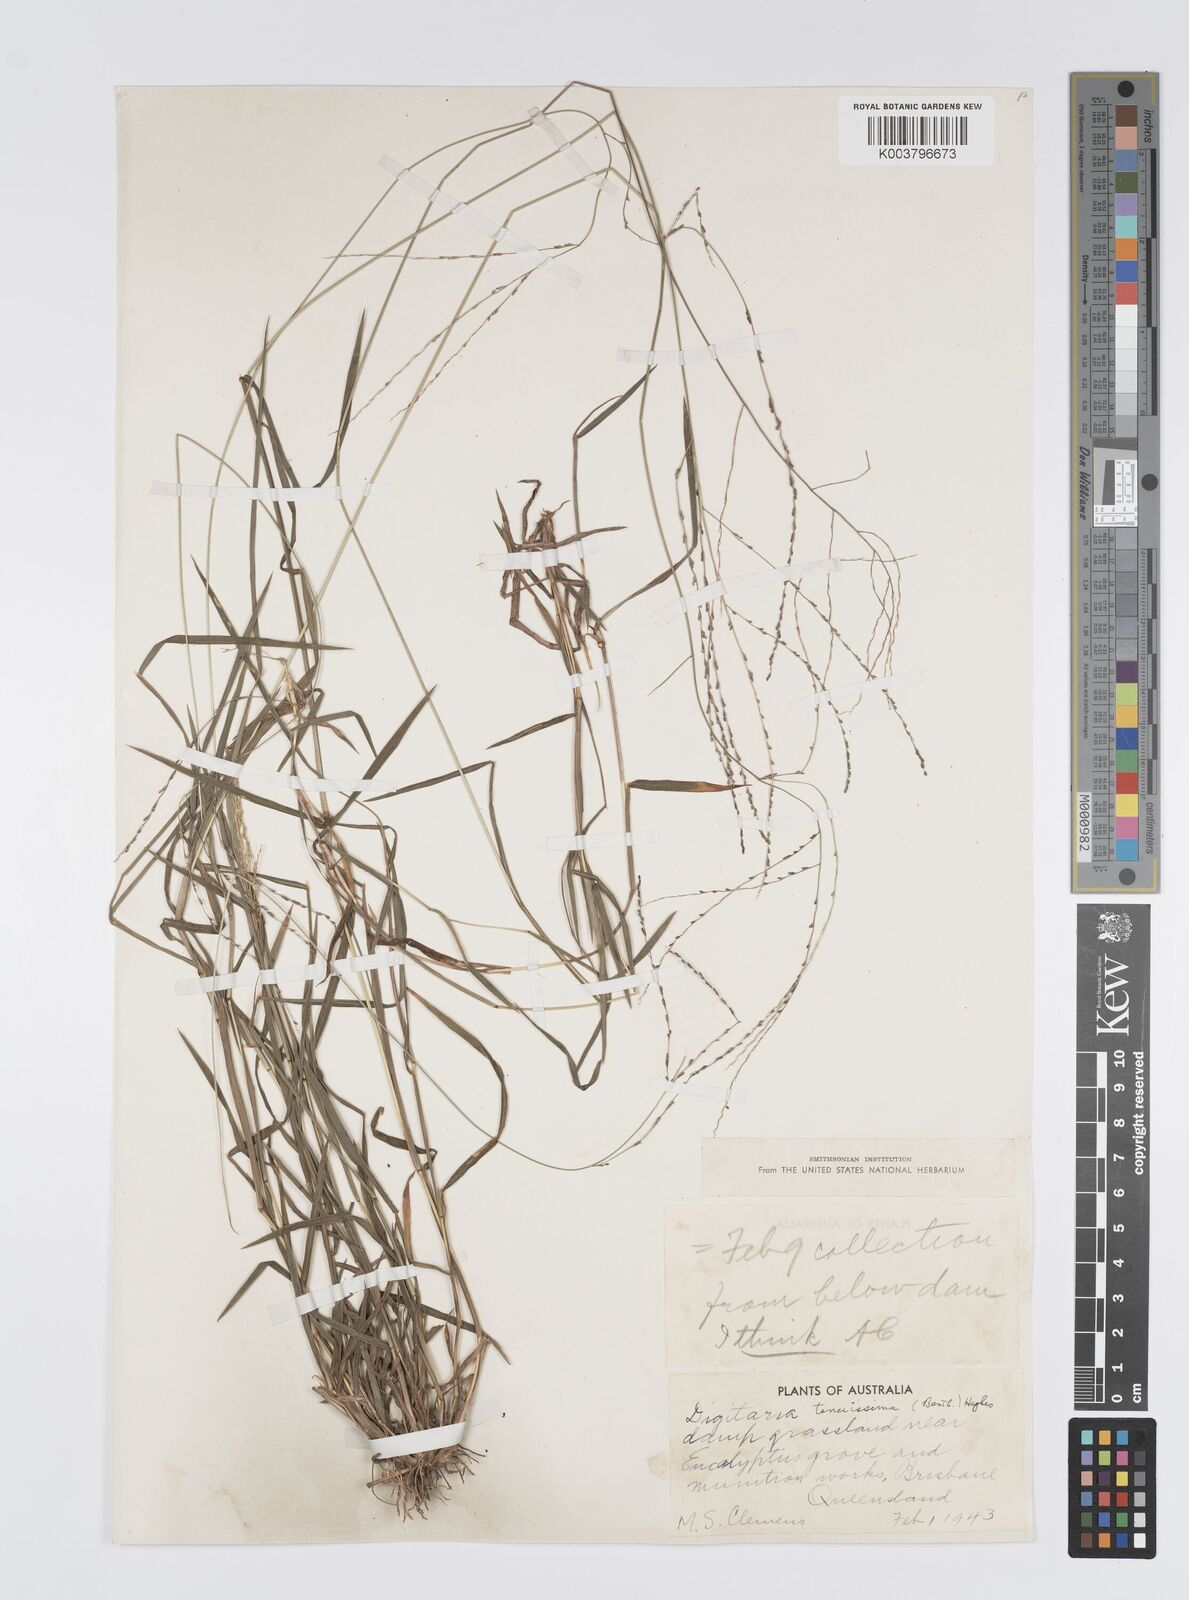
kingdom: Plantae
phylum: Tracheophyta
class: Liliopsida
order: Poales
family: Poaceae
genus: Digitaria
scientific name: Digitaria ramularis
